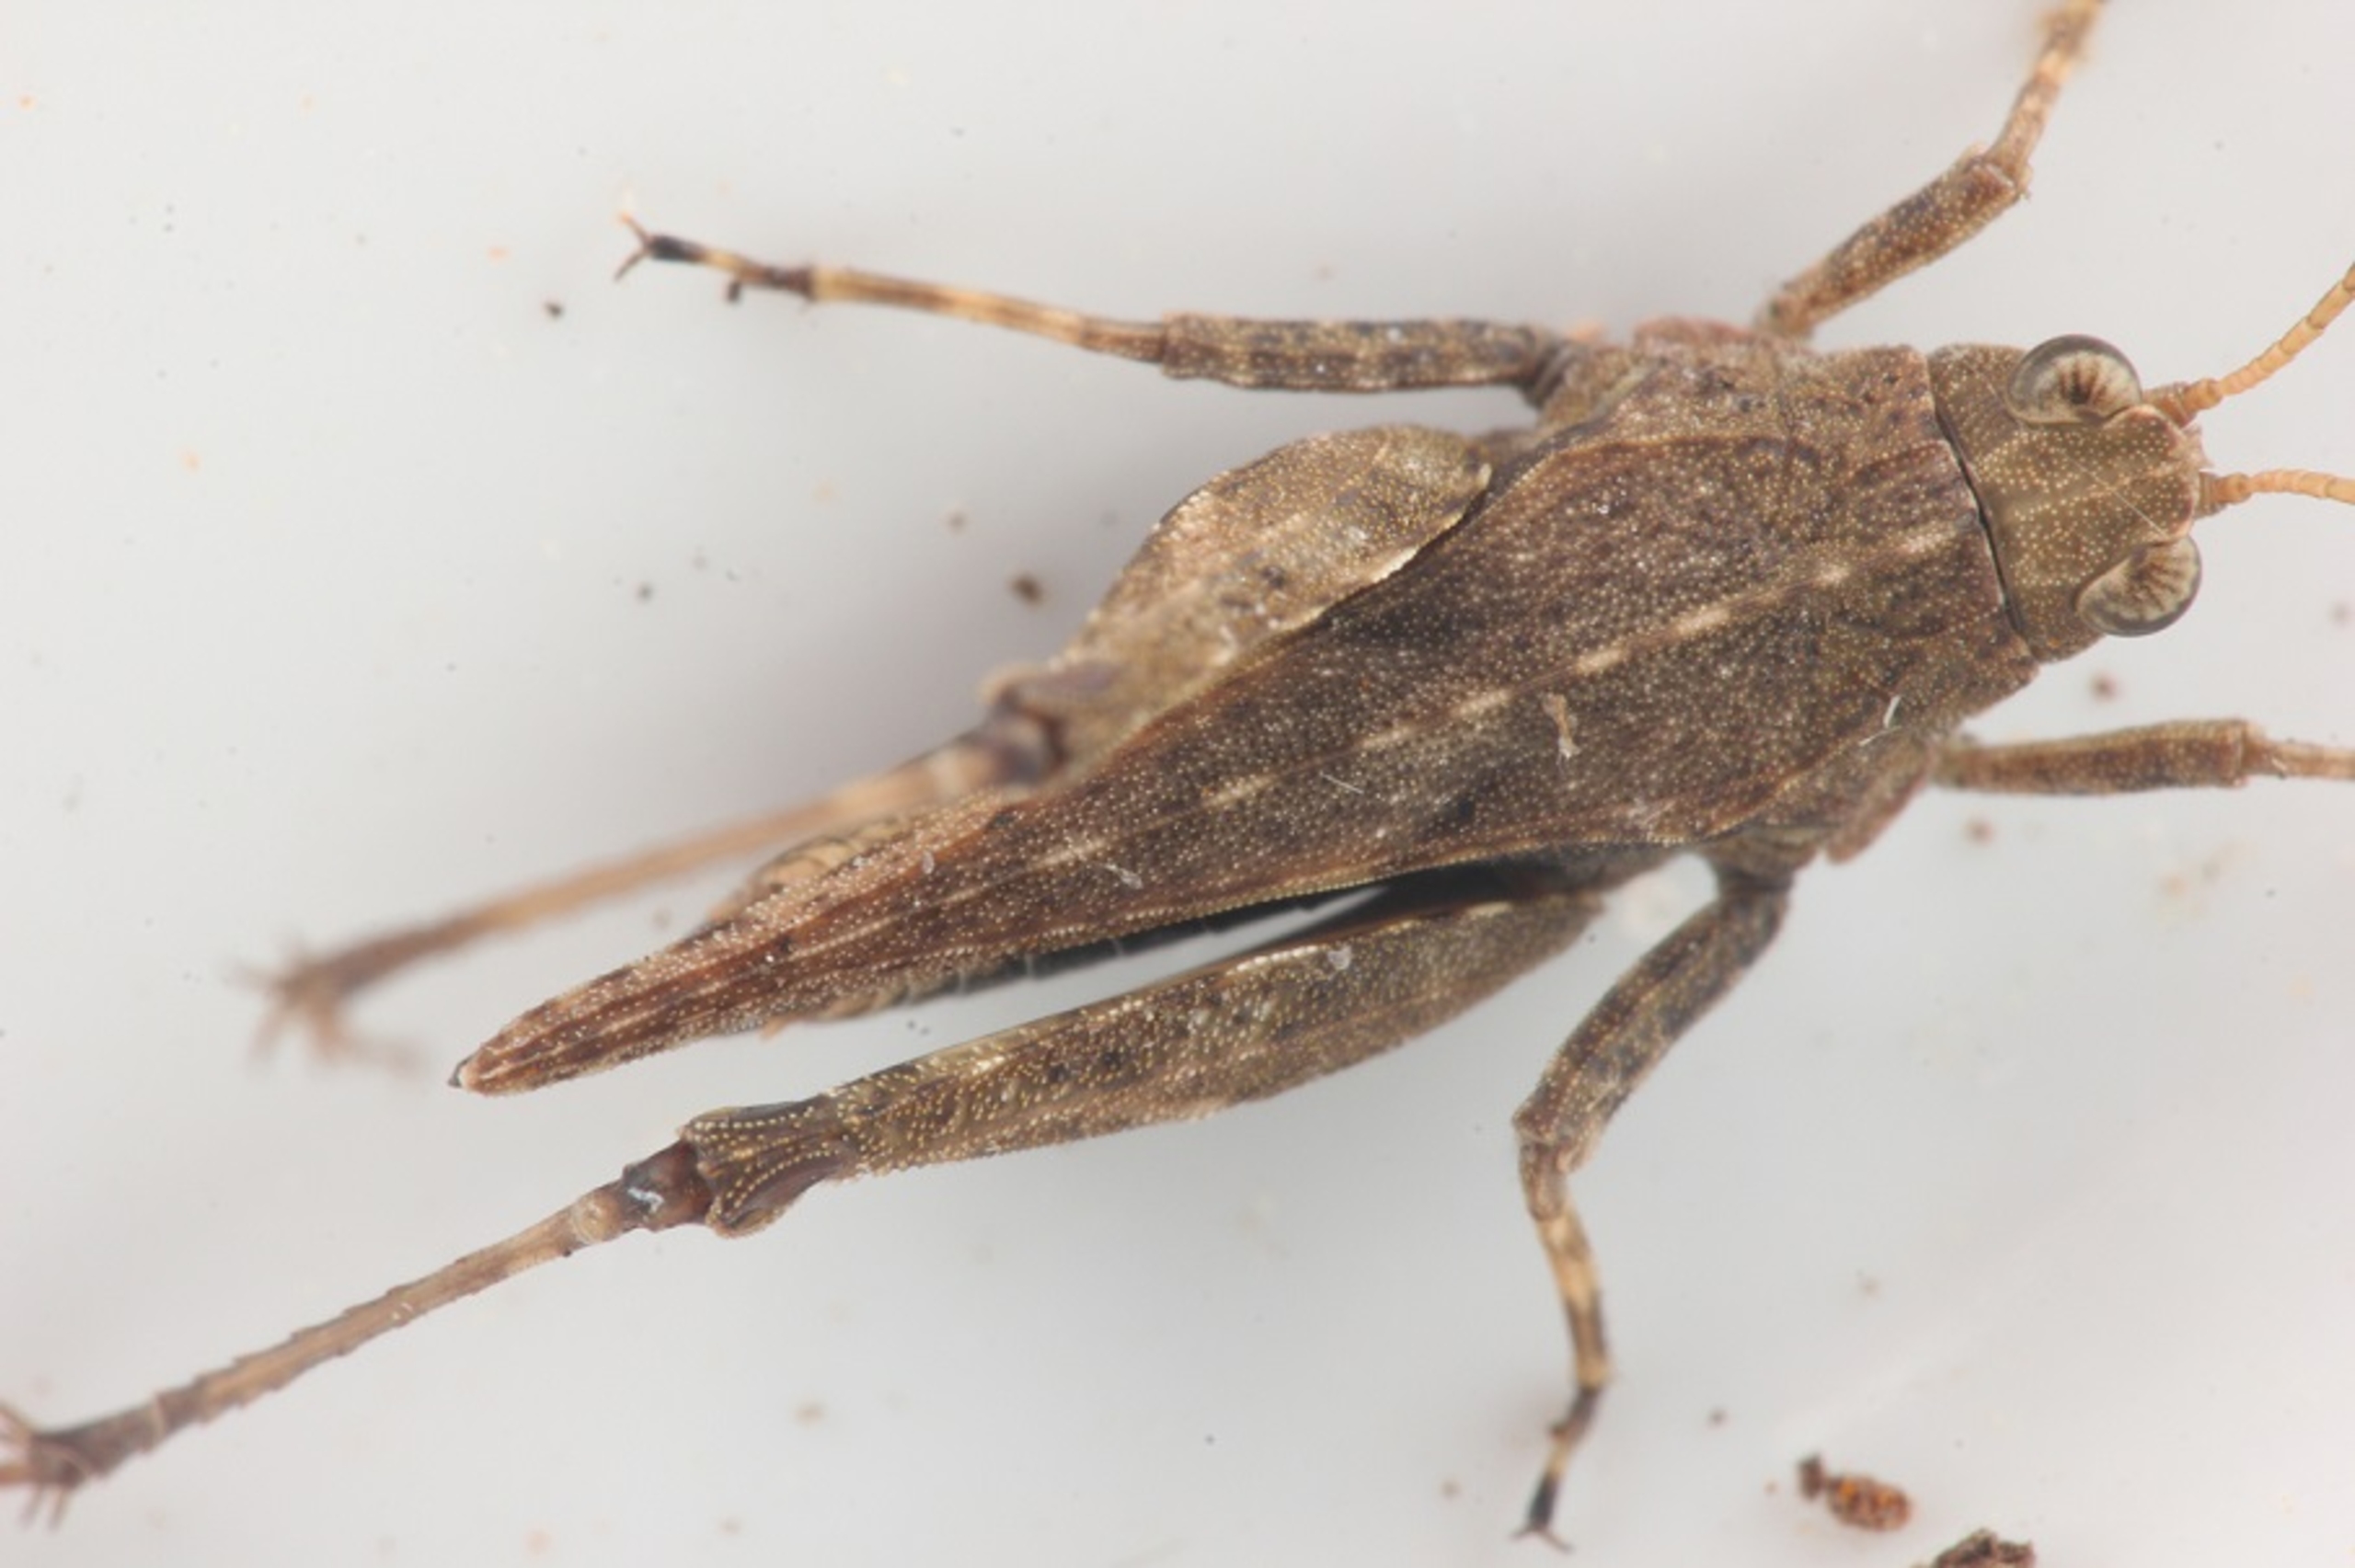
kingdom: Animalia
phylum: Arthropoda
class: Insecta
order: Orthoptera
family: Tetrigidae
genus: Tetrix
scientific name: Tetrix subulata
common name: Sump-torngræshoppe
